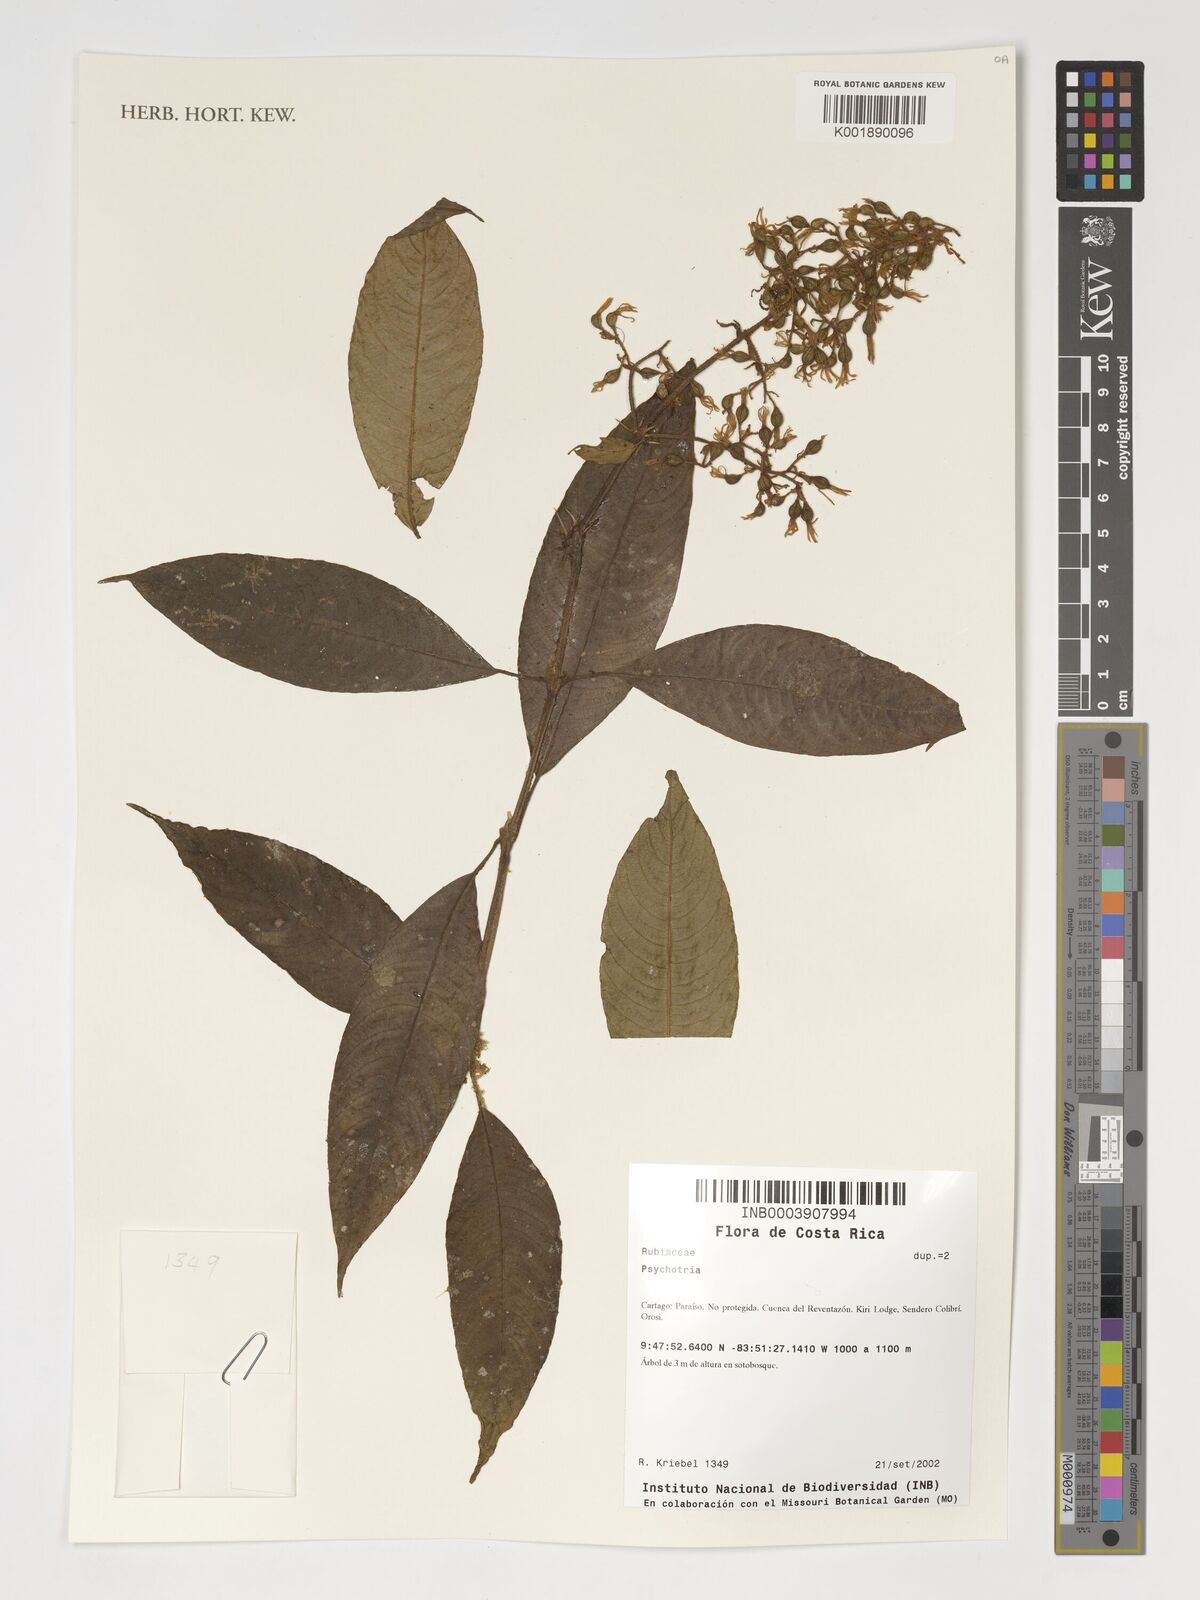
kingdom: Plantae
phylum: Tracheophyta
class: Magnoliopsida
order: Gentianales
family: Rubiaceae
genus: Psychotria
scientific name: Psychotria
